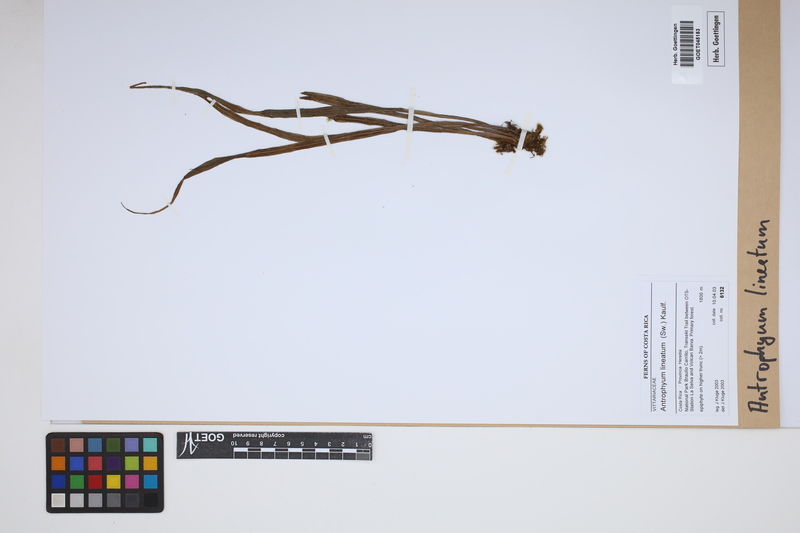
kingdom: Plantae
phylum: Tracheophyta
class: Polypodiopsida
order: Polypodiales
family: Pteridaceae
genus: Polytaenium
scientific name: Polytaenium lineatum
